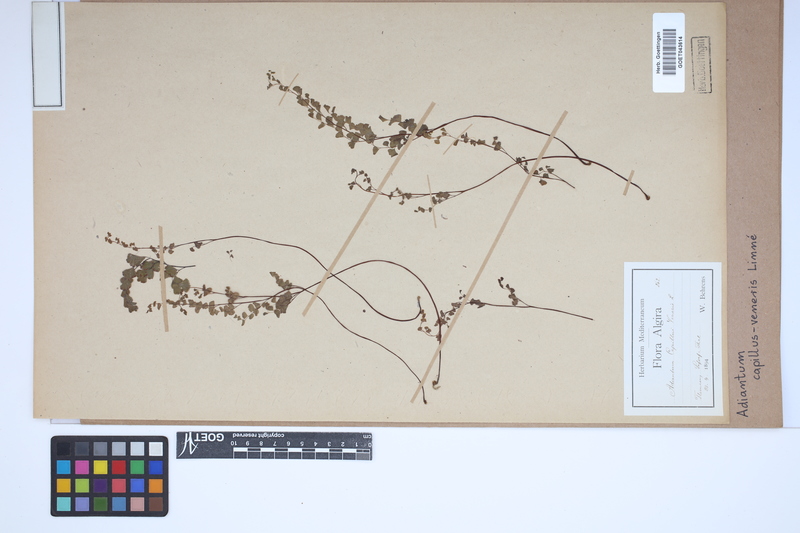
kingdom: Plantae
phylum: Tracheophyta
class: Polypodiopsida
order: Polypodiales
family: Pteridaceae
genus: Adiantum
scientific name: Adiantum capillus-veneris
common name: Maidenhair fern
